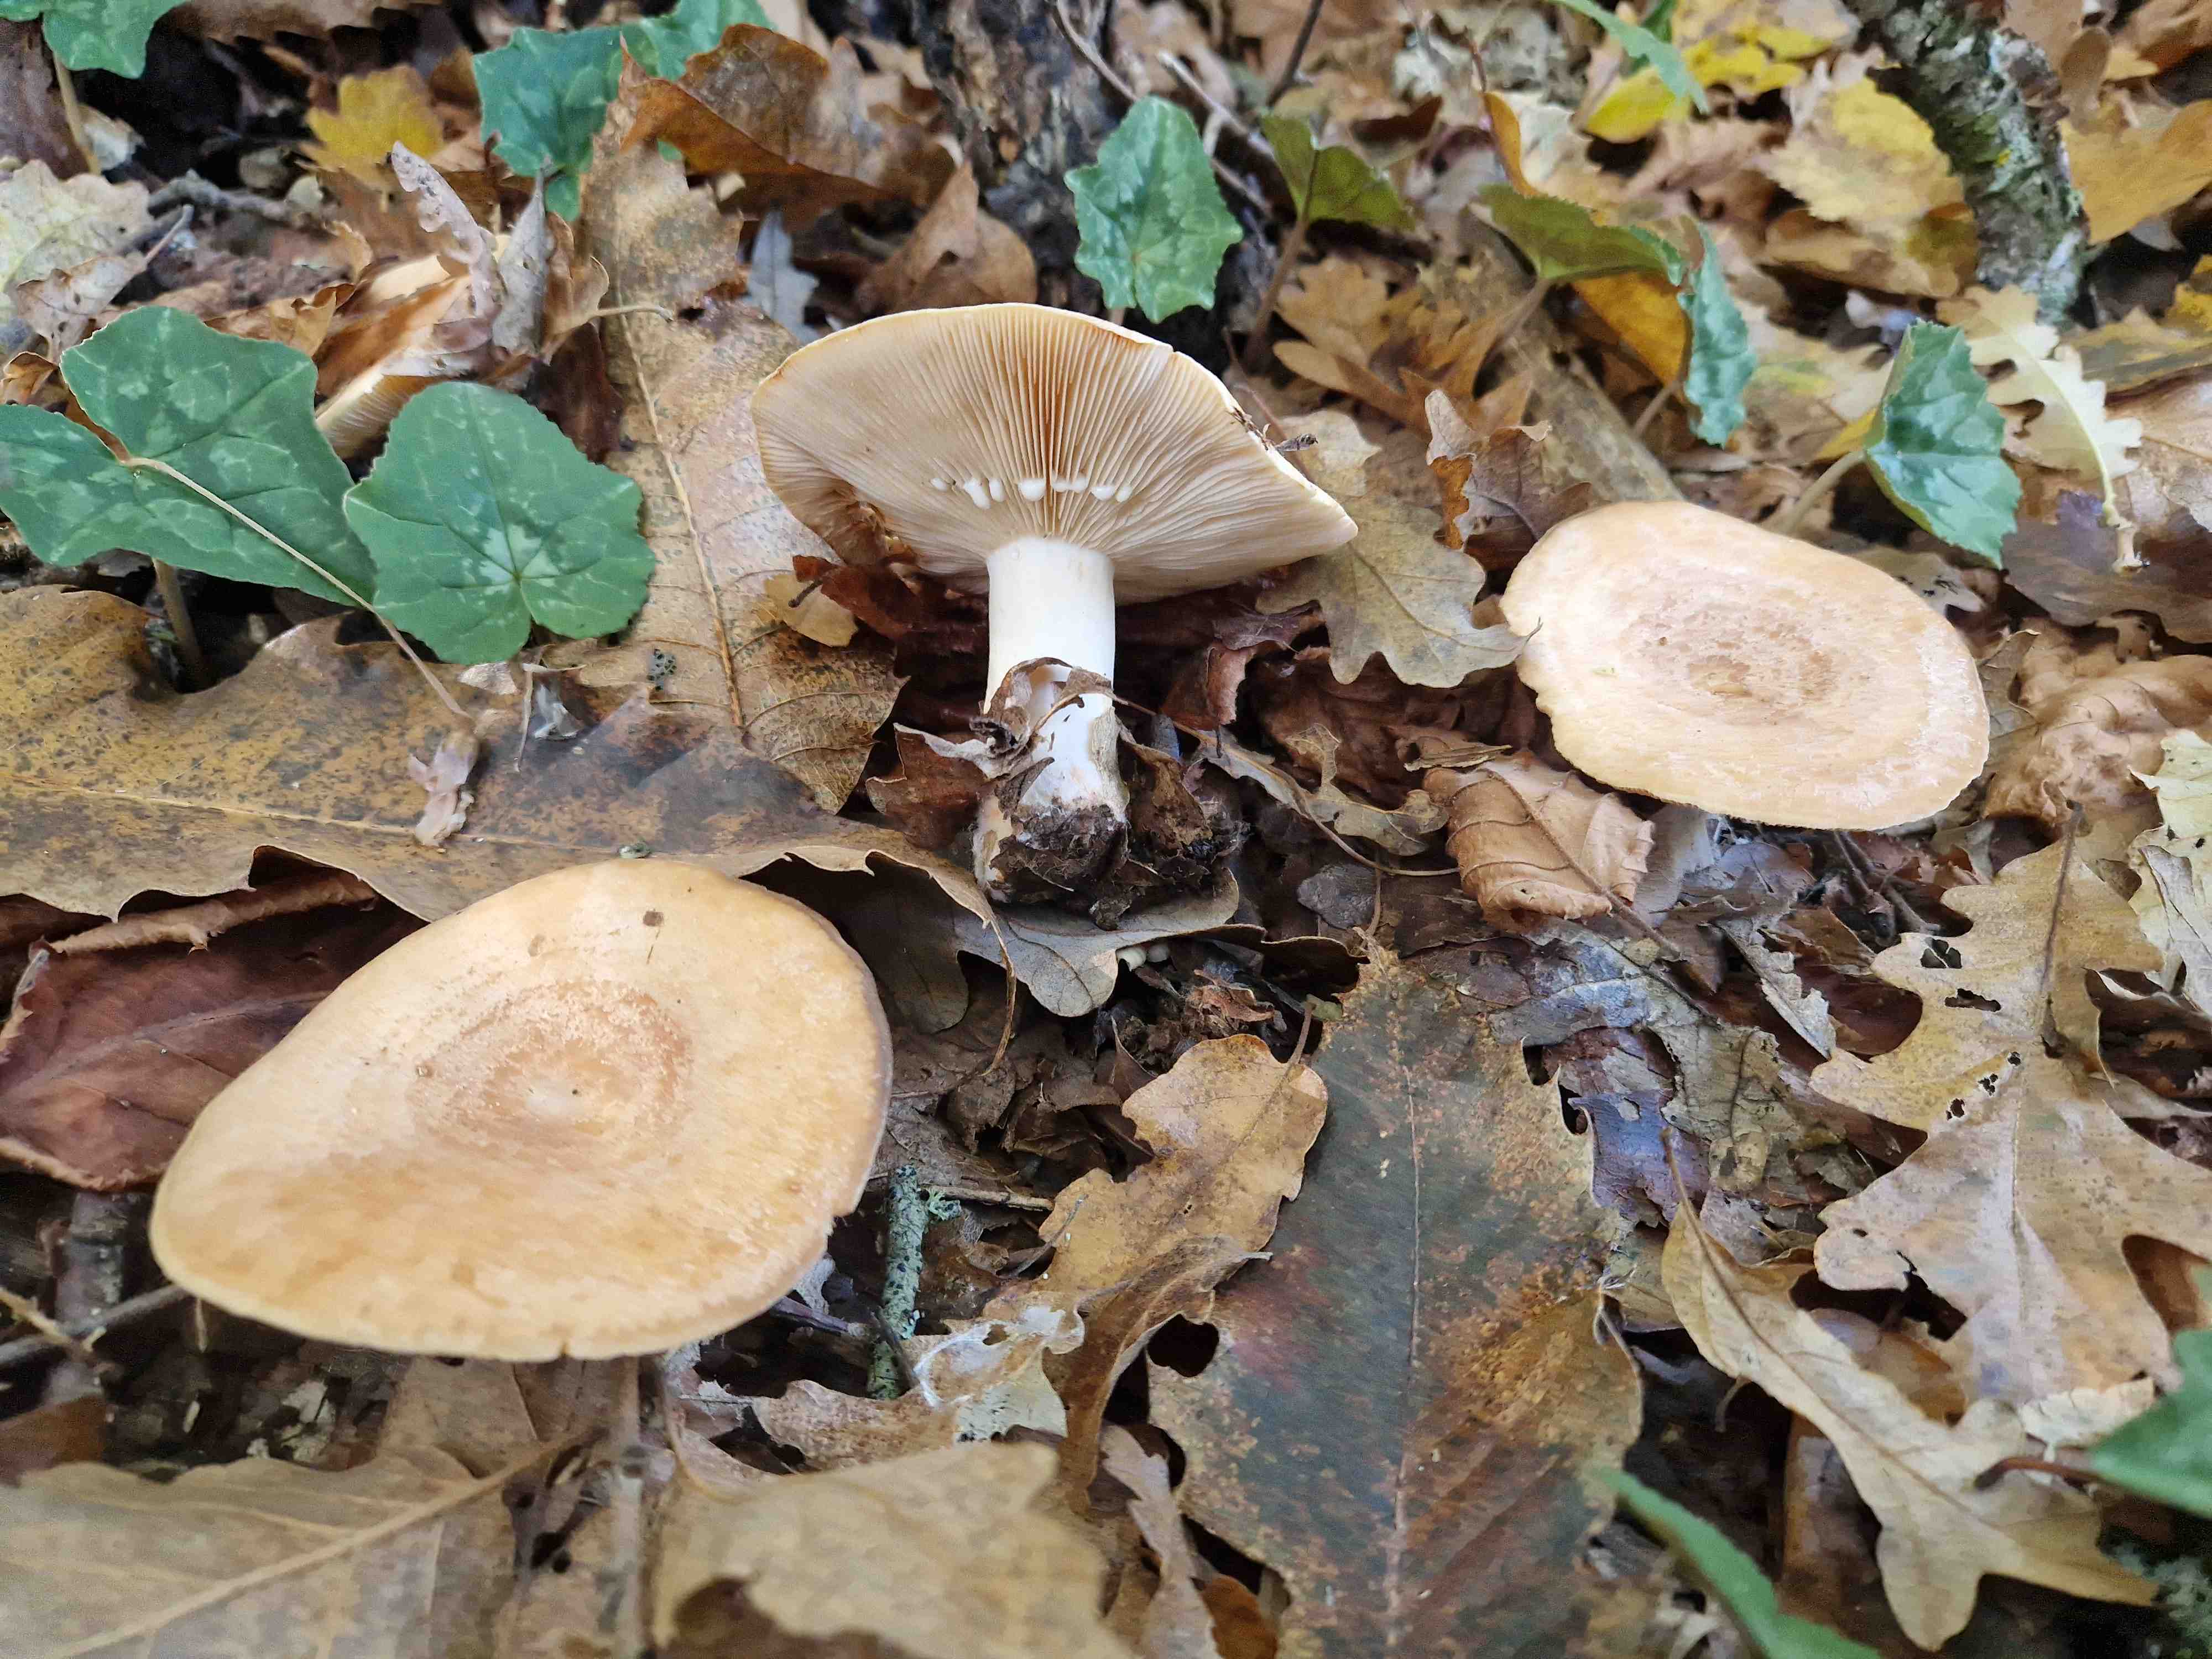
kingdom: Fungi
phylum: Basidiomycota
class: Agaricomycetes
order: Russulales
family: Russulaceae
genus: Lactarius
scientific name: Lactarius zonarius
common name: zoneret mælkehat
